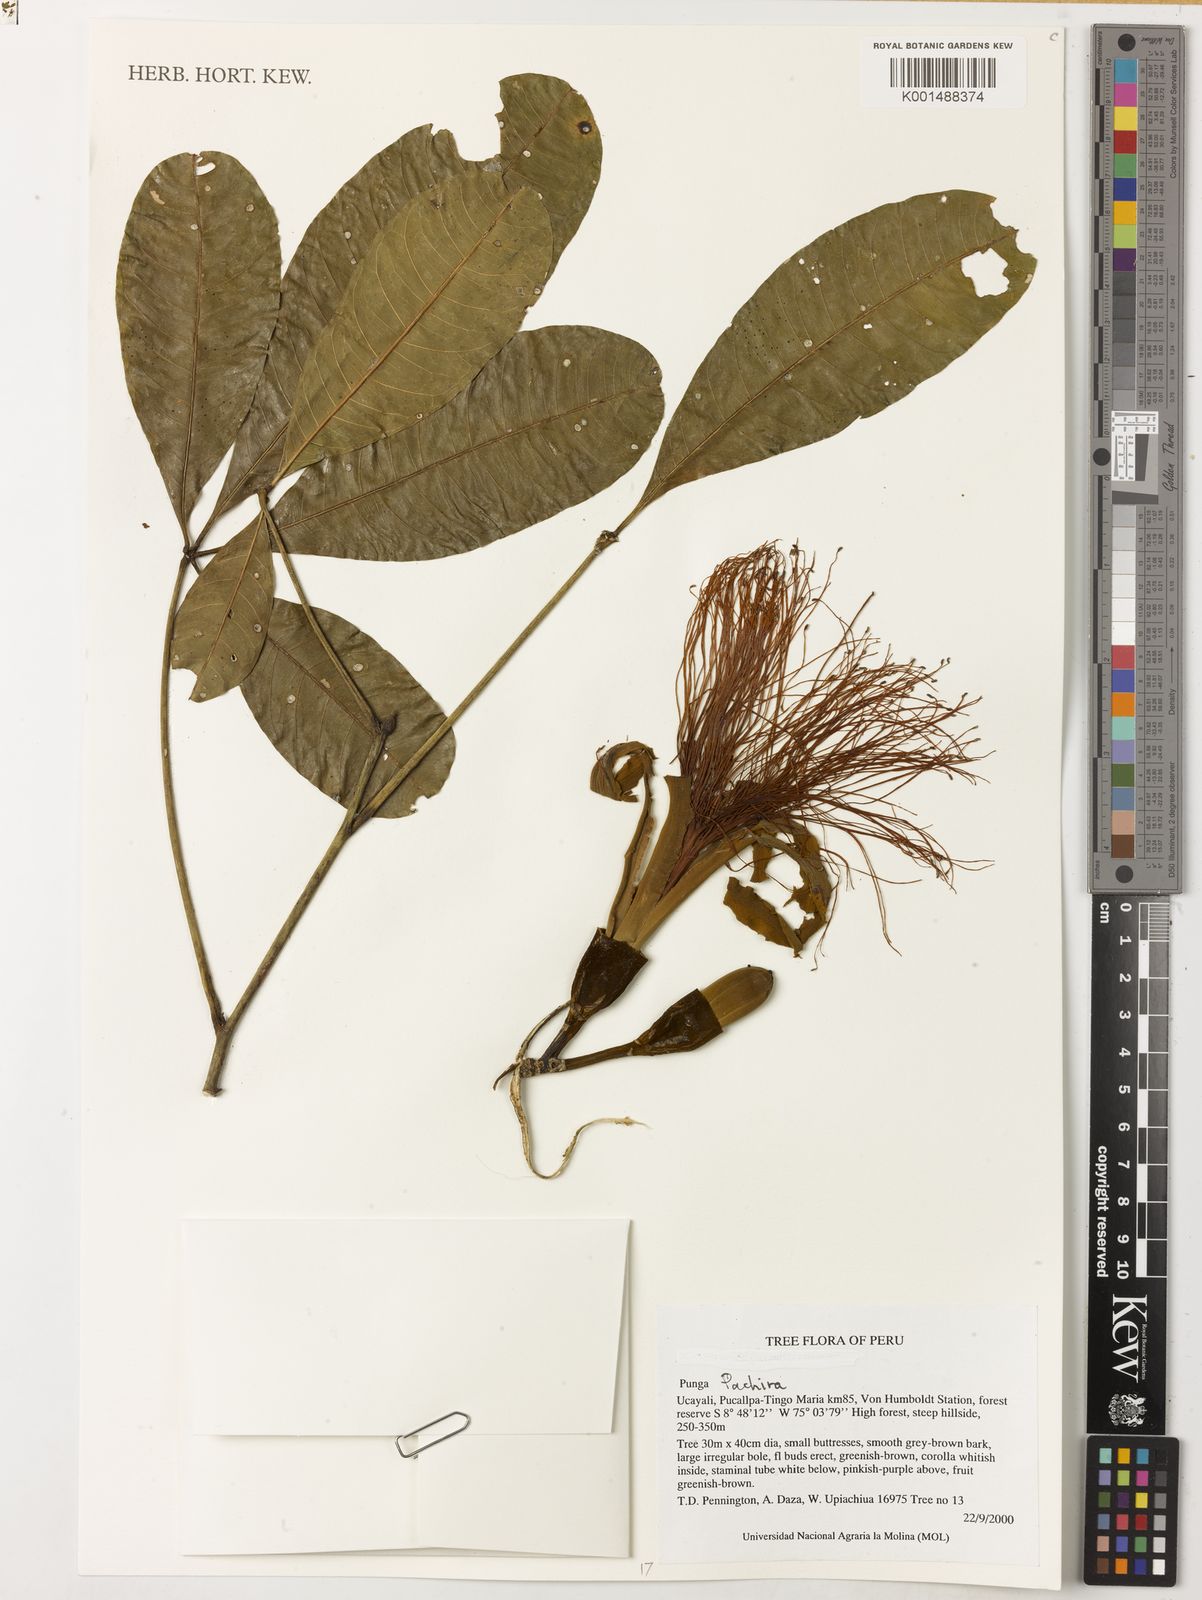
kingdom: Plantae
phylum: Tracheophyta
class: Magnoliopsida
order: Malvales
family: Malvaceae
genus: Pachira
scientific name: Pachira
